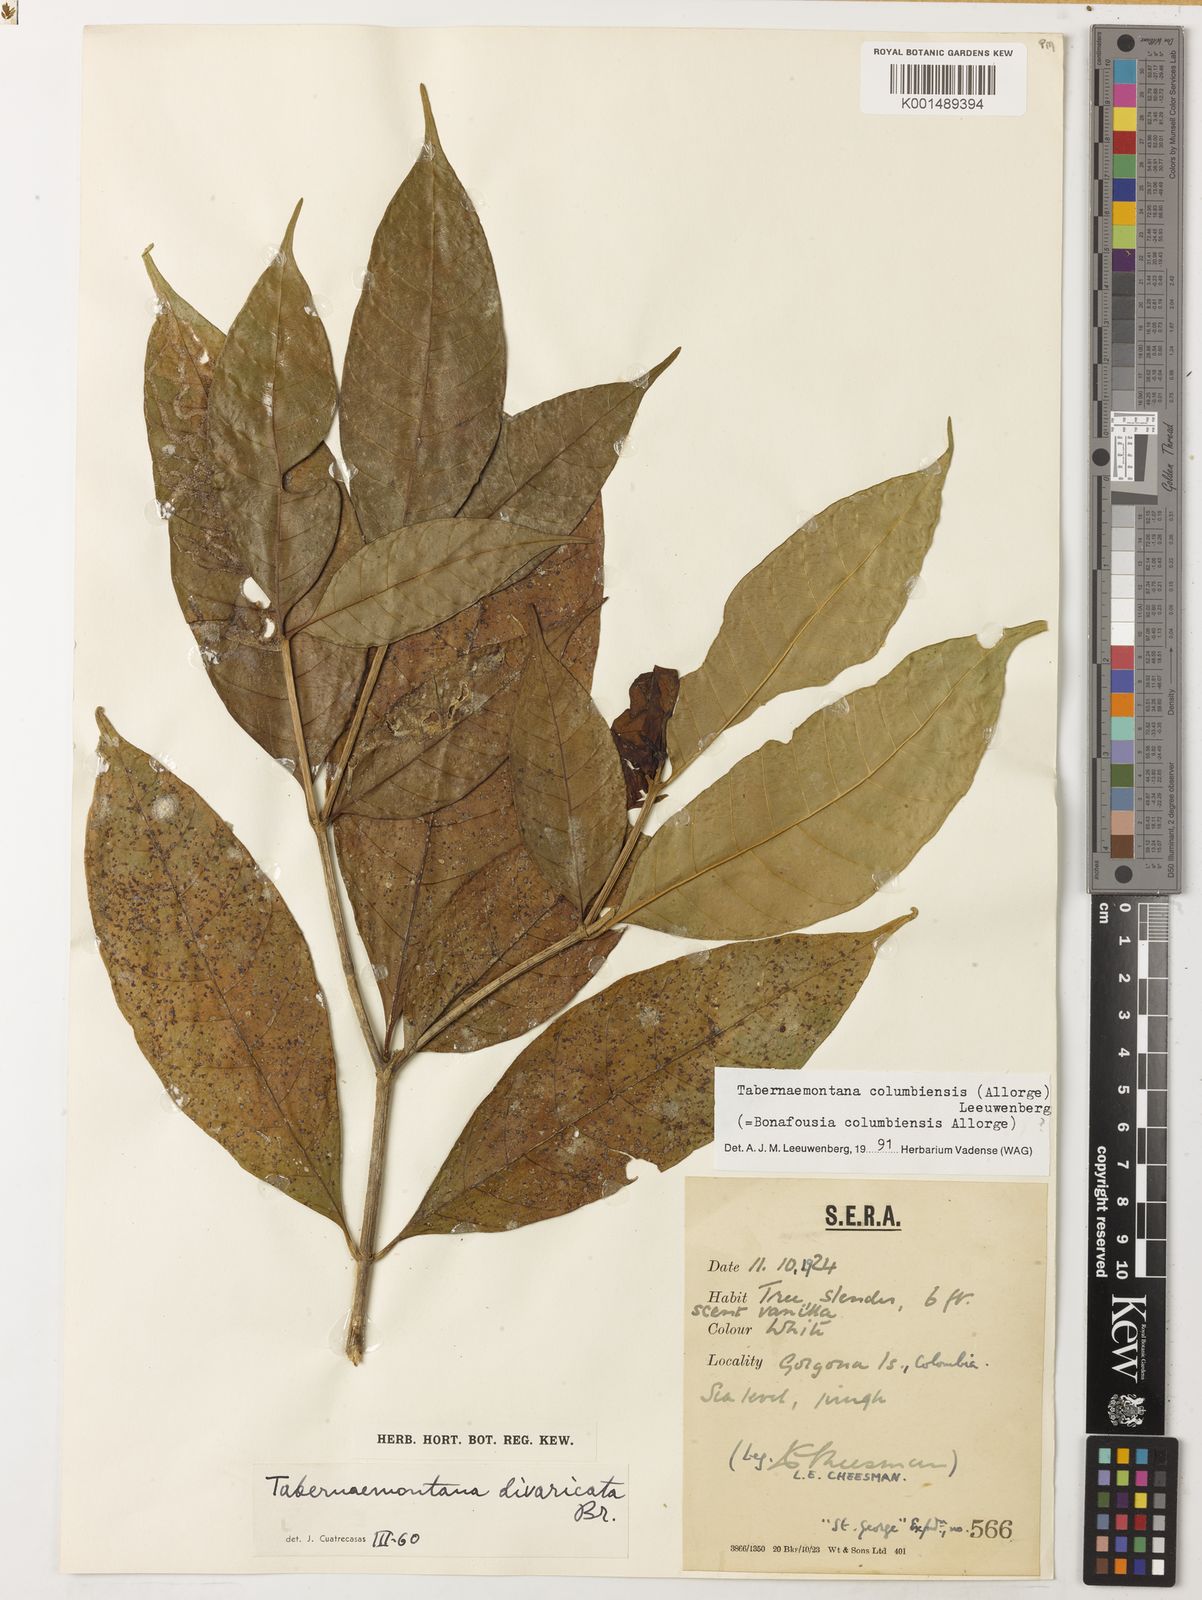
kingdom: Plantae
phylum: Tracheophyta
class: Magnoliopsida
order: Gentianales
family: Apocynaceae
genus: Tabernaemontana
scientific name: Tabernaemontana columbiensis
